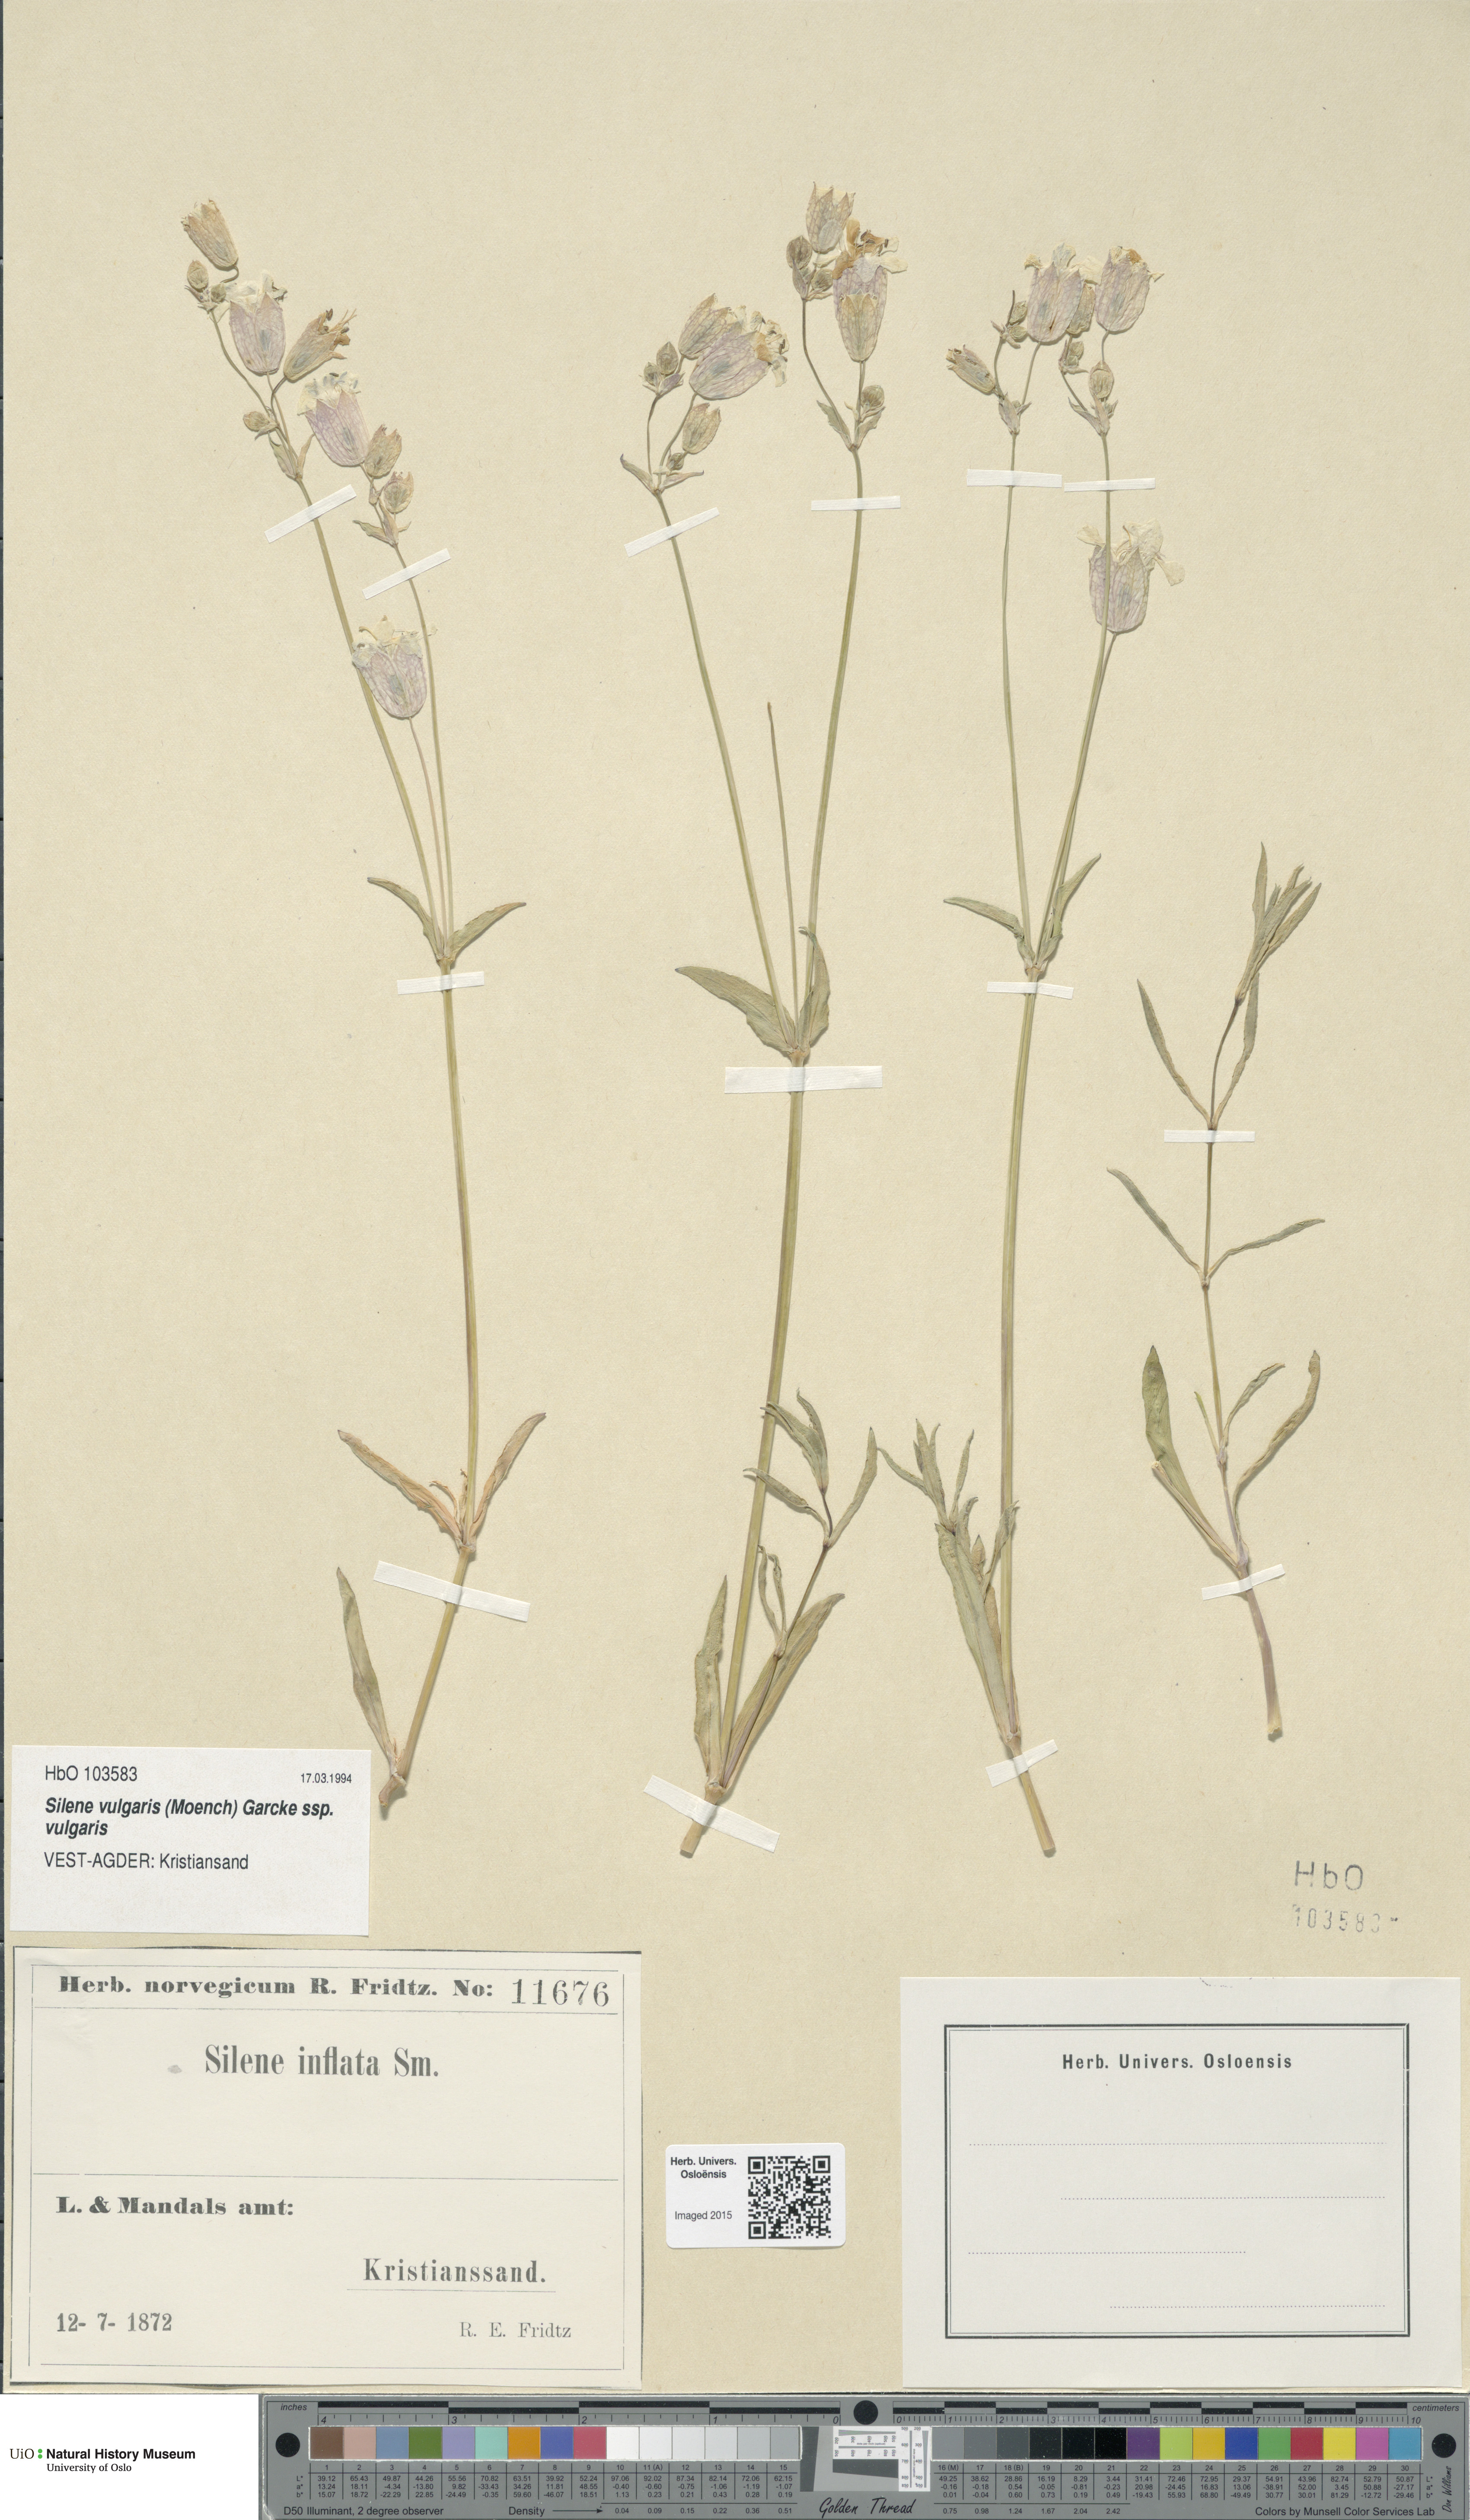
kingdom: Plantae
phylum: Tracheophyta
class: Magnoliopsida
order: Caryophyllales
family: Caryophyllaceae
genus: Silene
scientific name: Silene vulgaris
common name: Bladder campion
